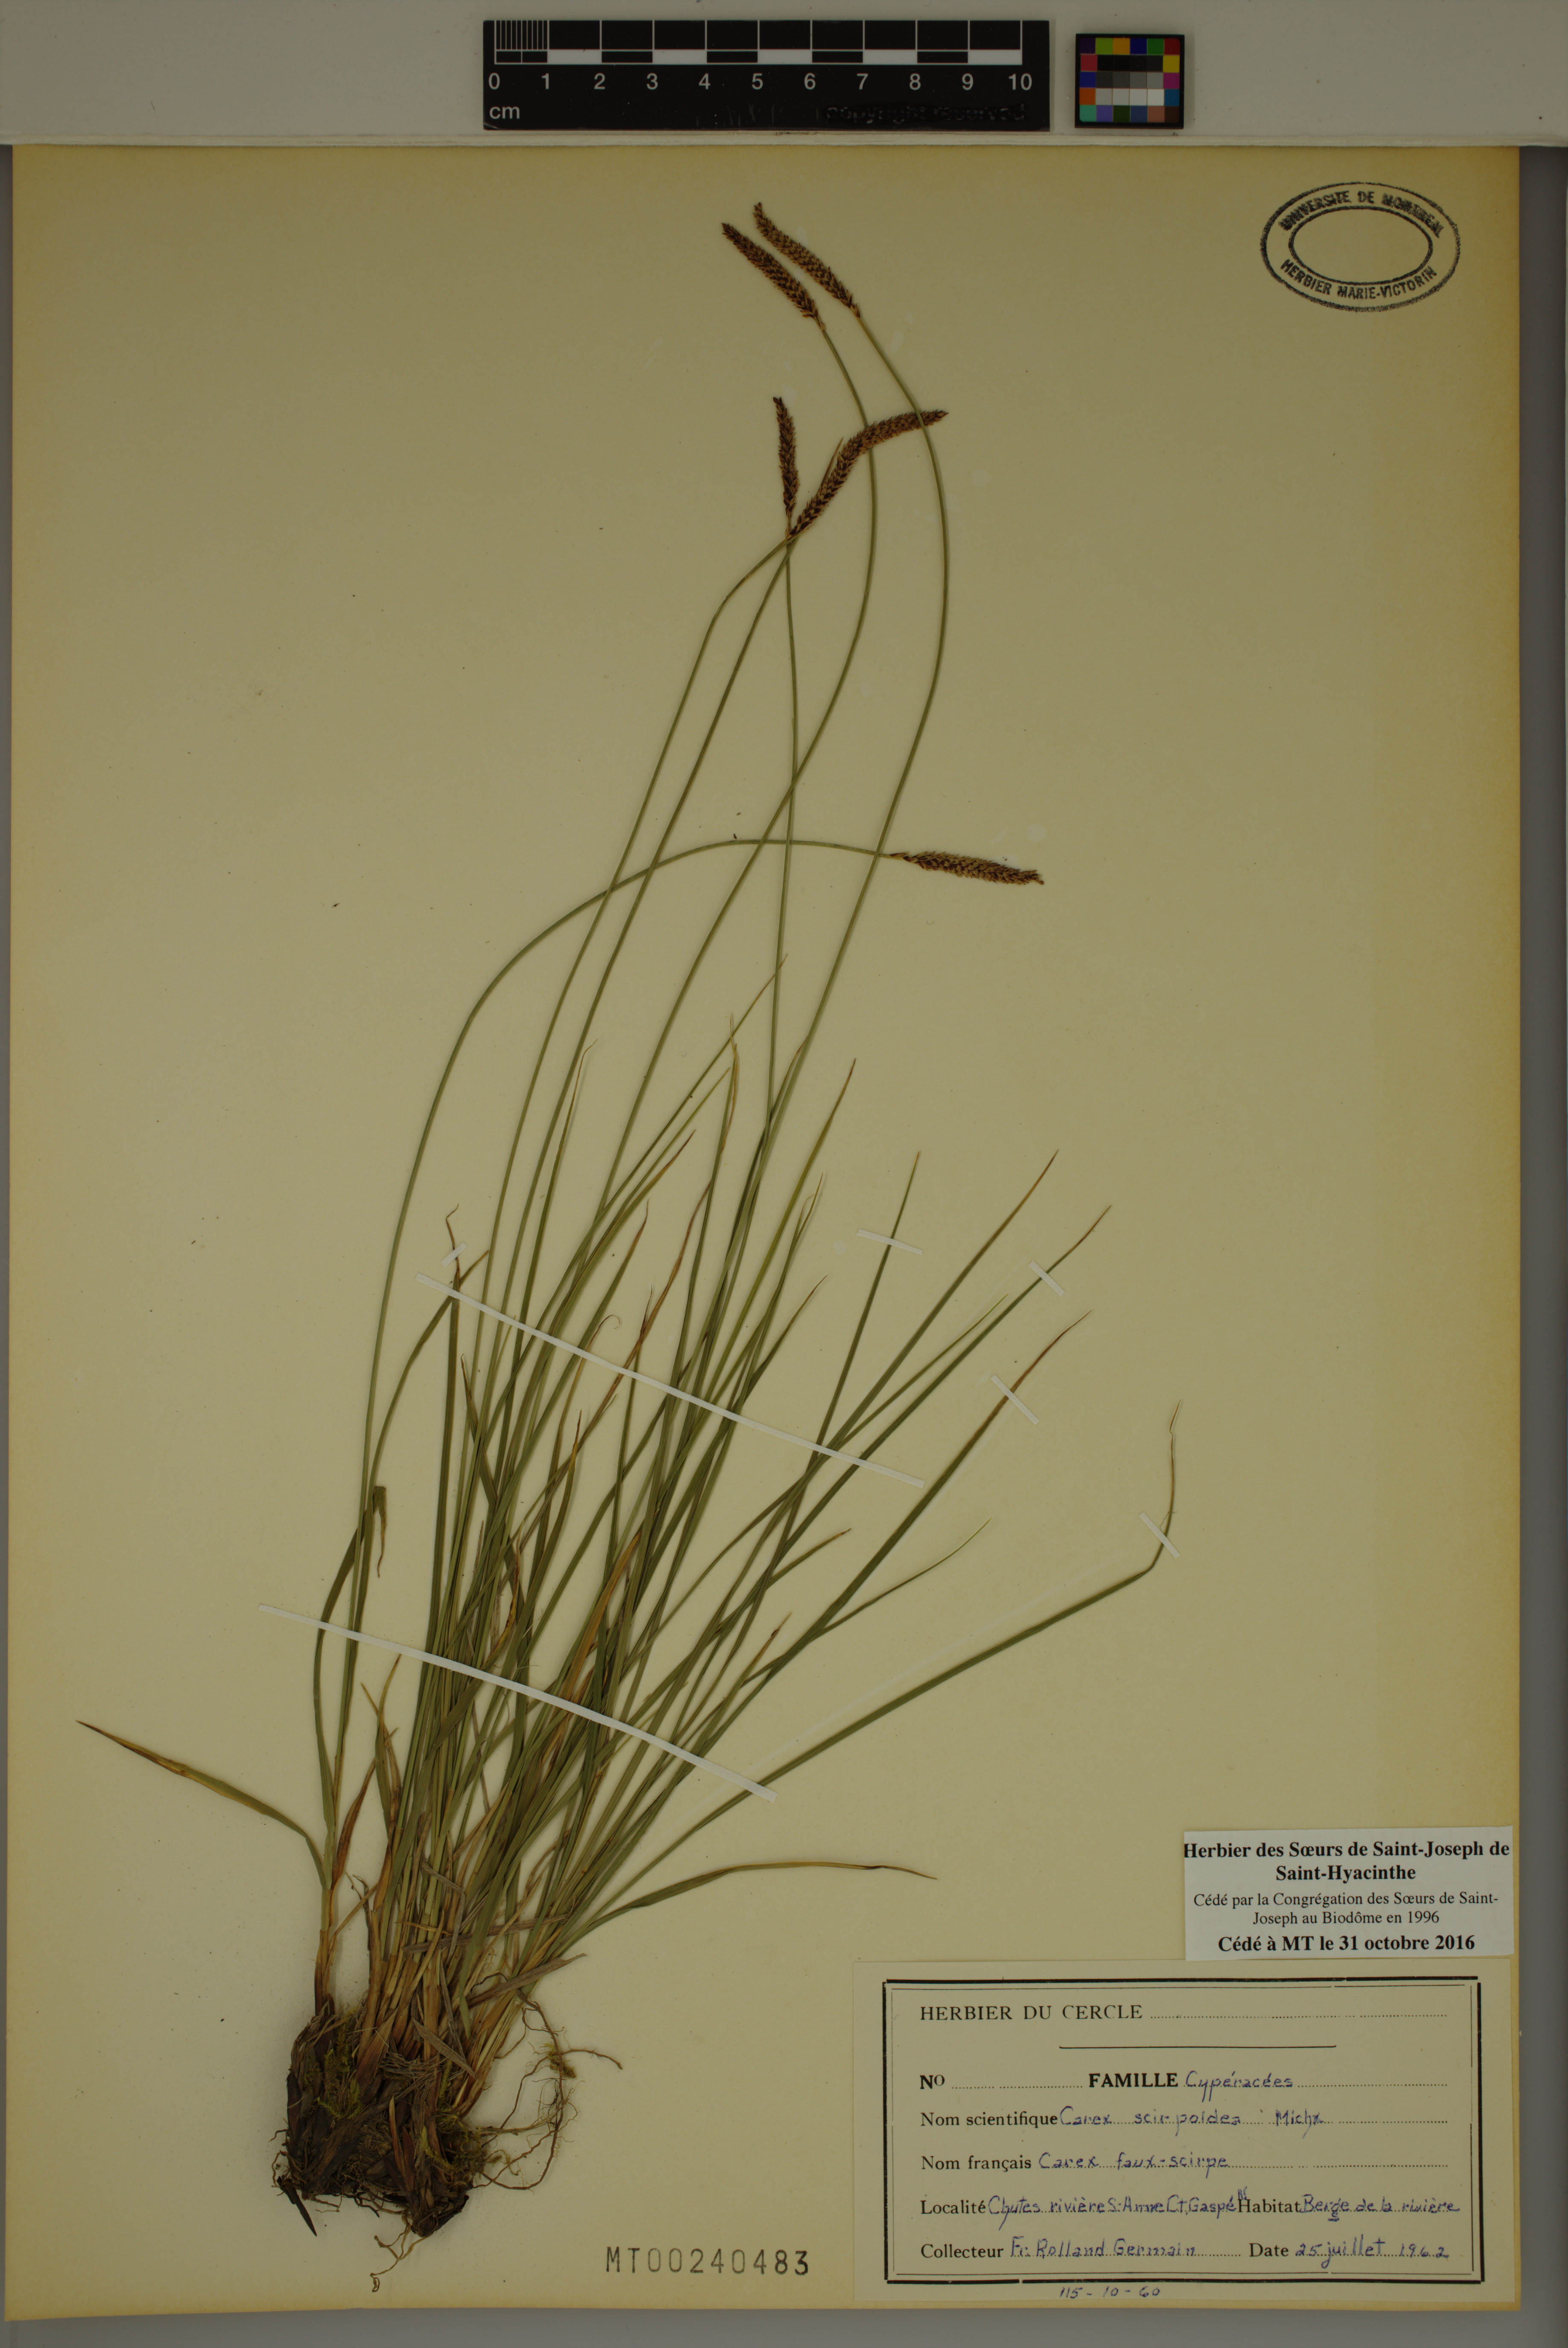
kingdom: Plantae
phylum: Tracheophyta
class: Liliopsida
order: Poales
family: Cyperaceae
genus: Carex
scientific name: Carex scirpoidea
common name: Canada single-spike sedge
